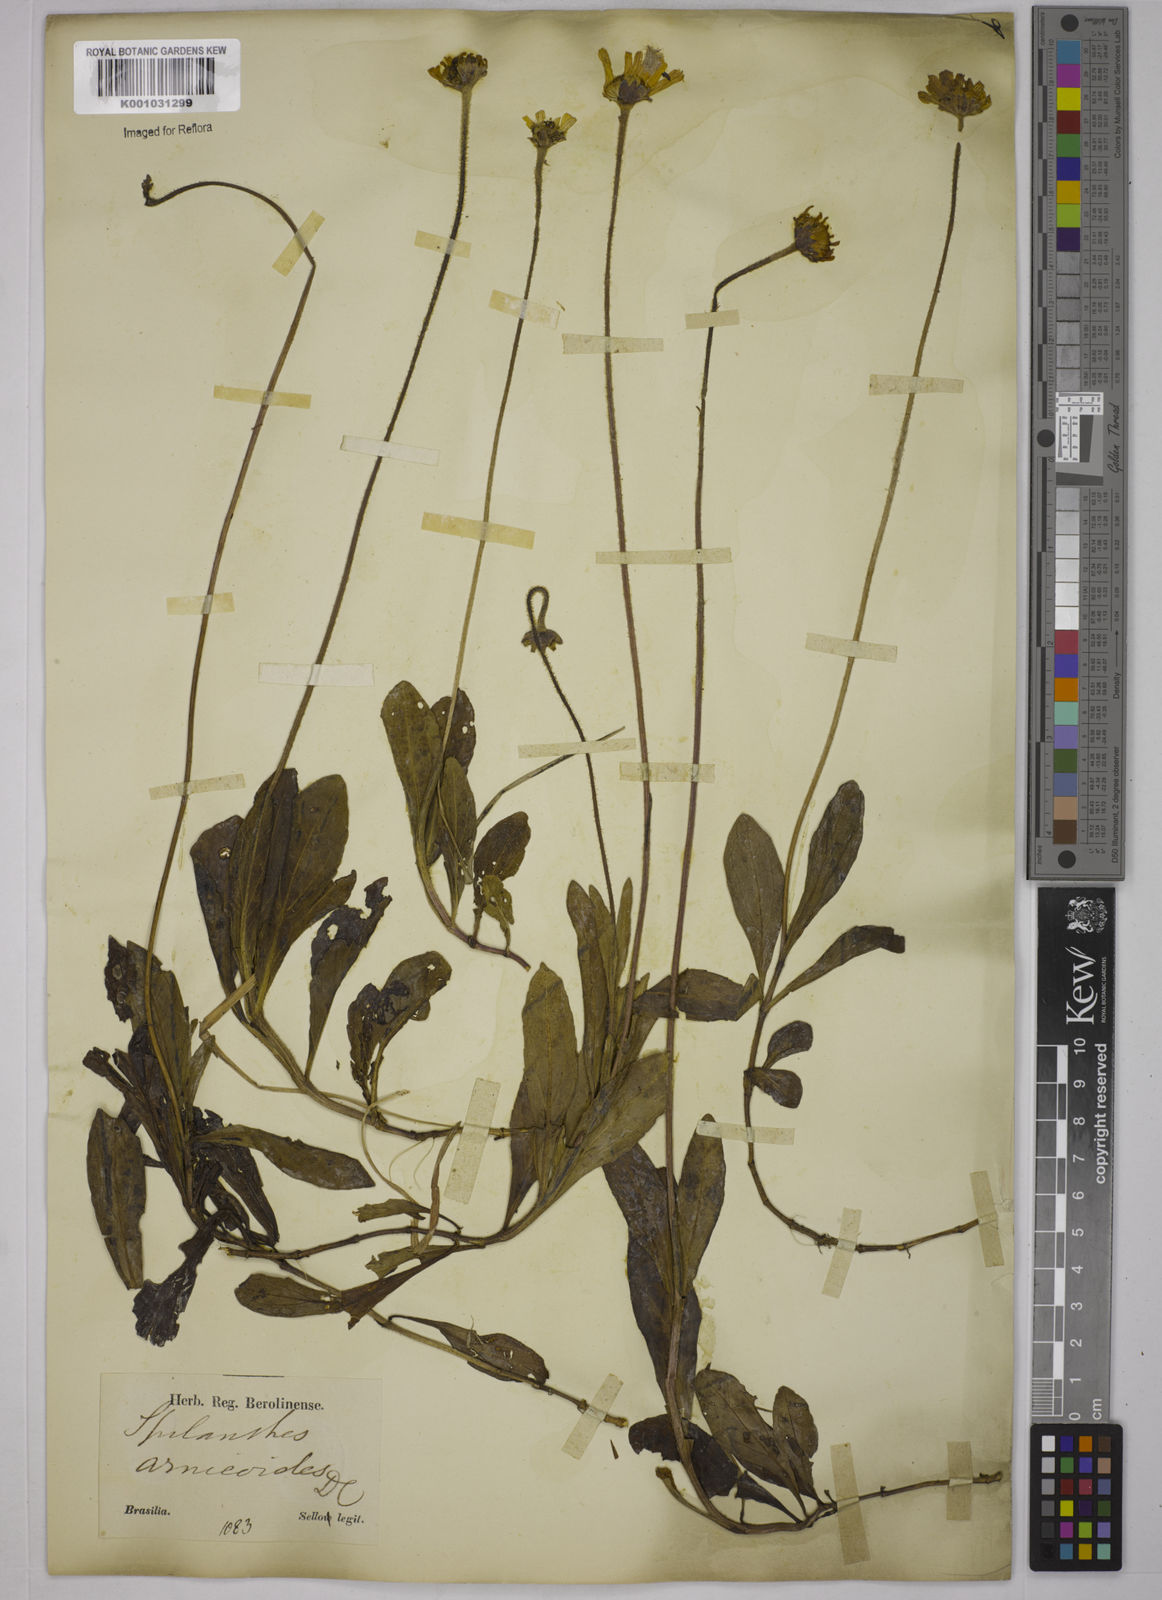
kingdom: Plantae
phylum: Tracheophyta
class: Magnoliopsida
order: Asterales
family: Asteraceae
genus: Acmella
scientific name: Acmella bellidioides
